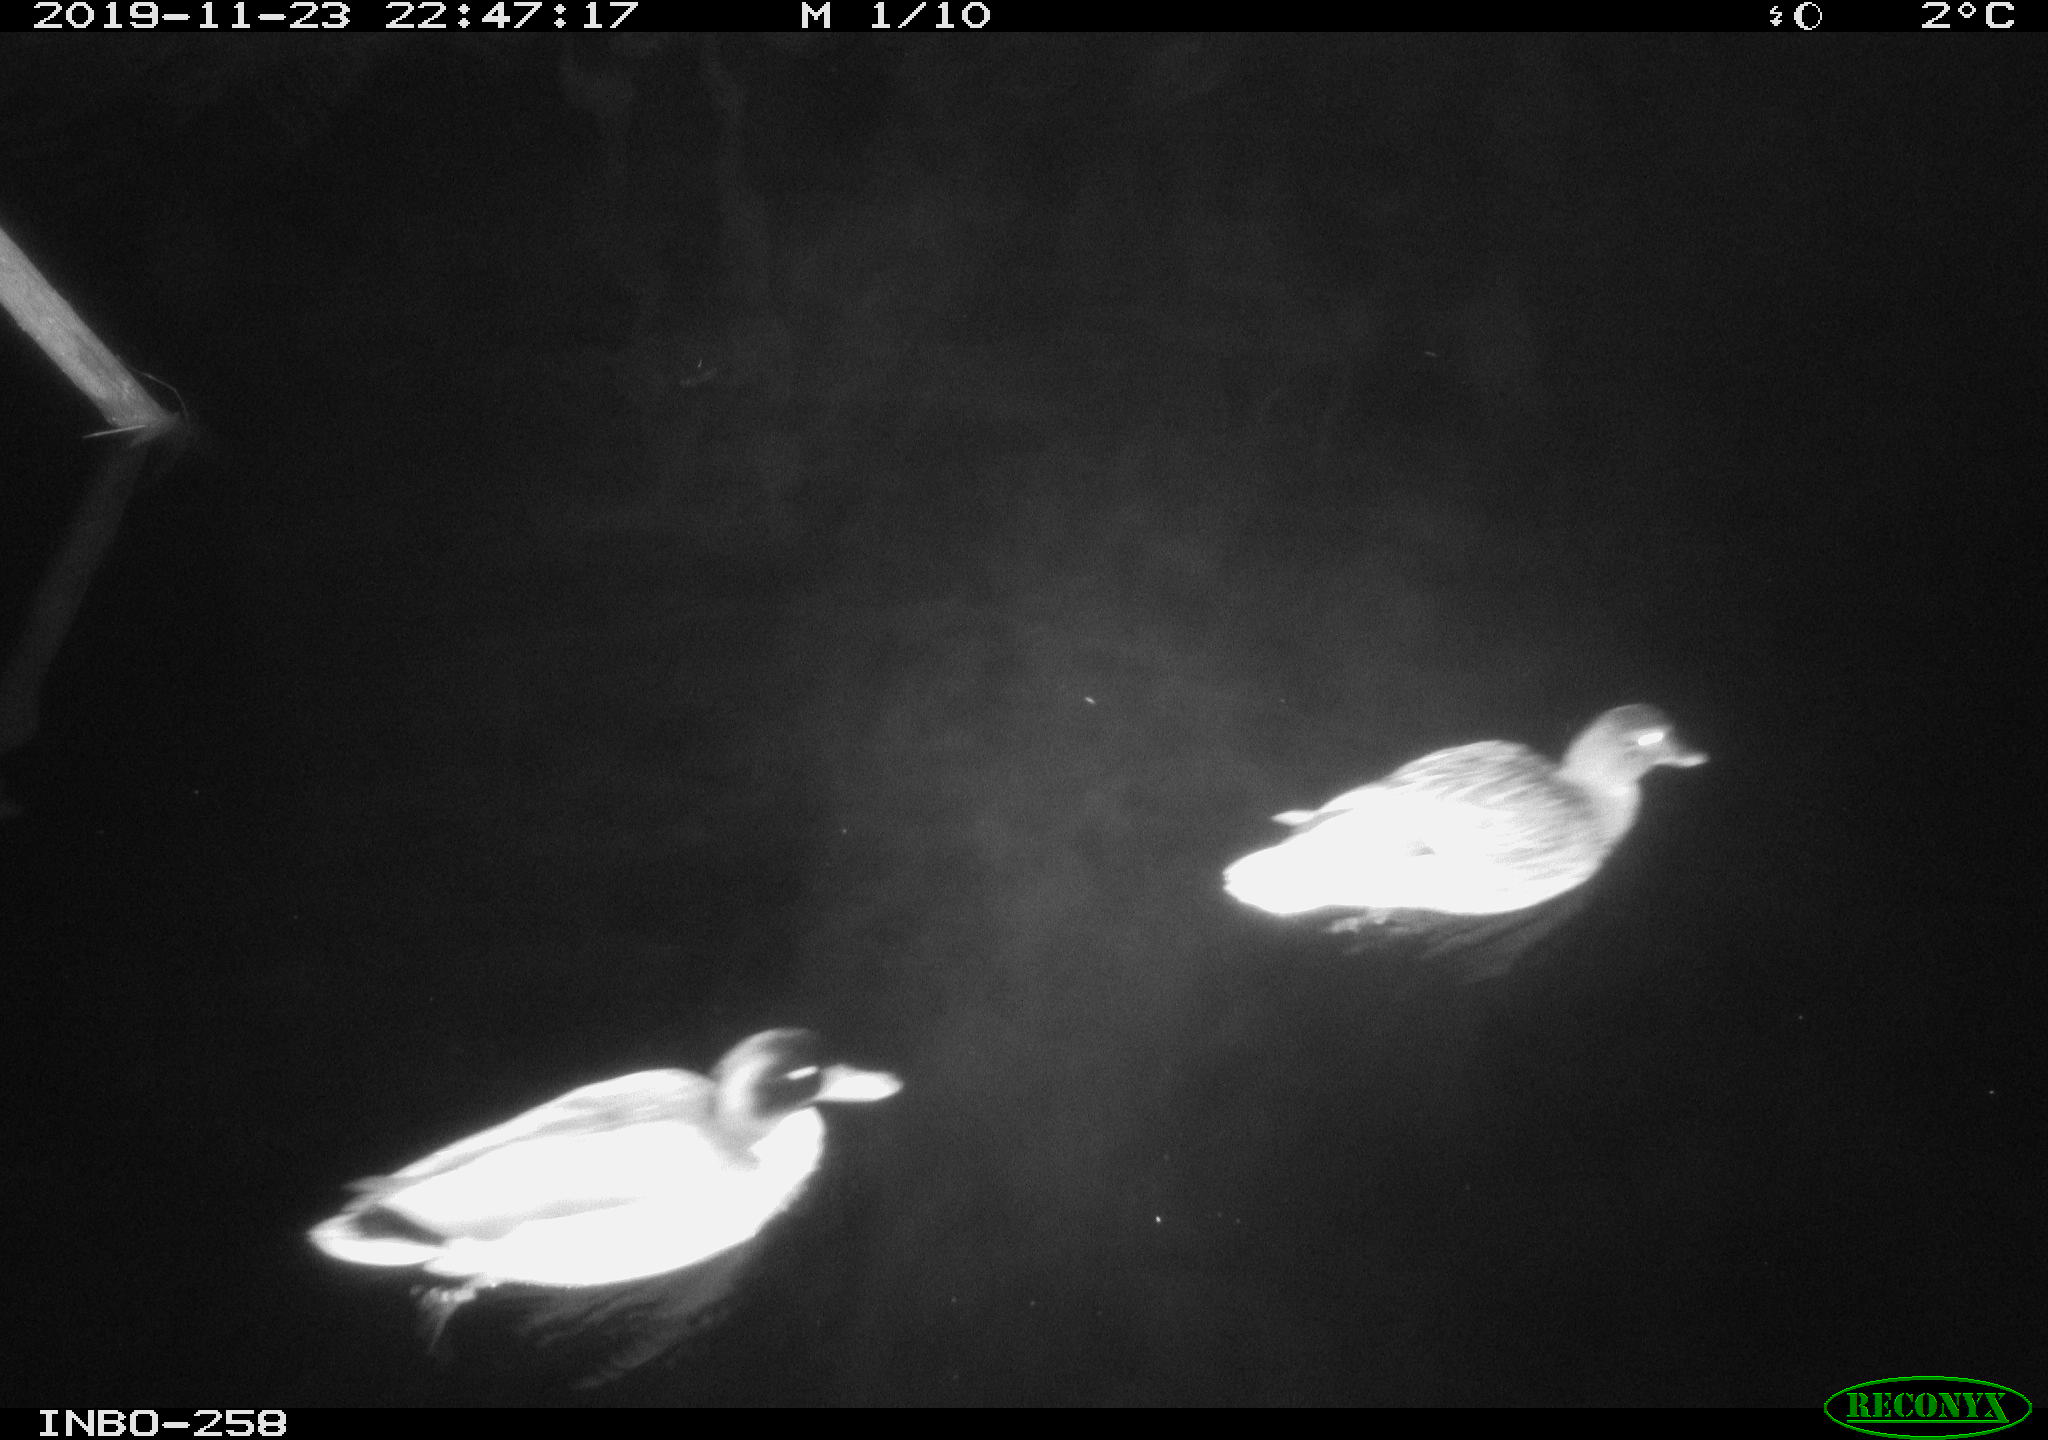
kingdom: Animalia
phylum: Chordata
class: Aves
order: Anseriformes
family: Anatidae
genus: Anas
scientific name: Anas platyrhynchos
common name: Mallard
